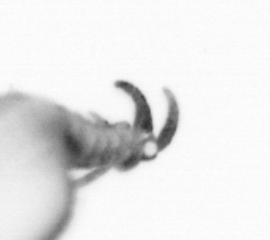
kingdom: Animalia
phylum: Annelida
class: Polychaeta
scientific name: Polychaeta
